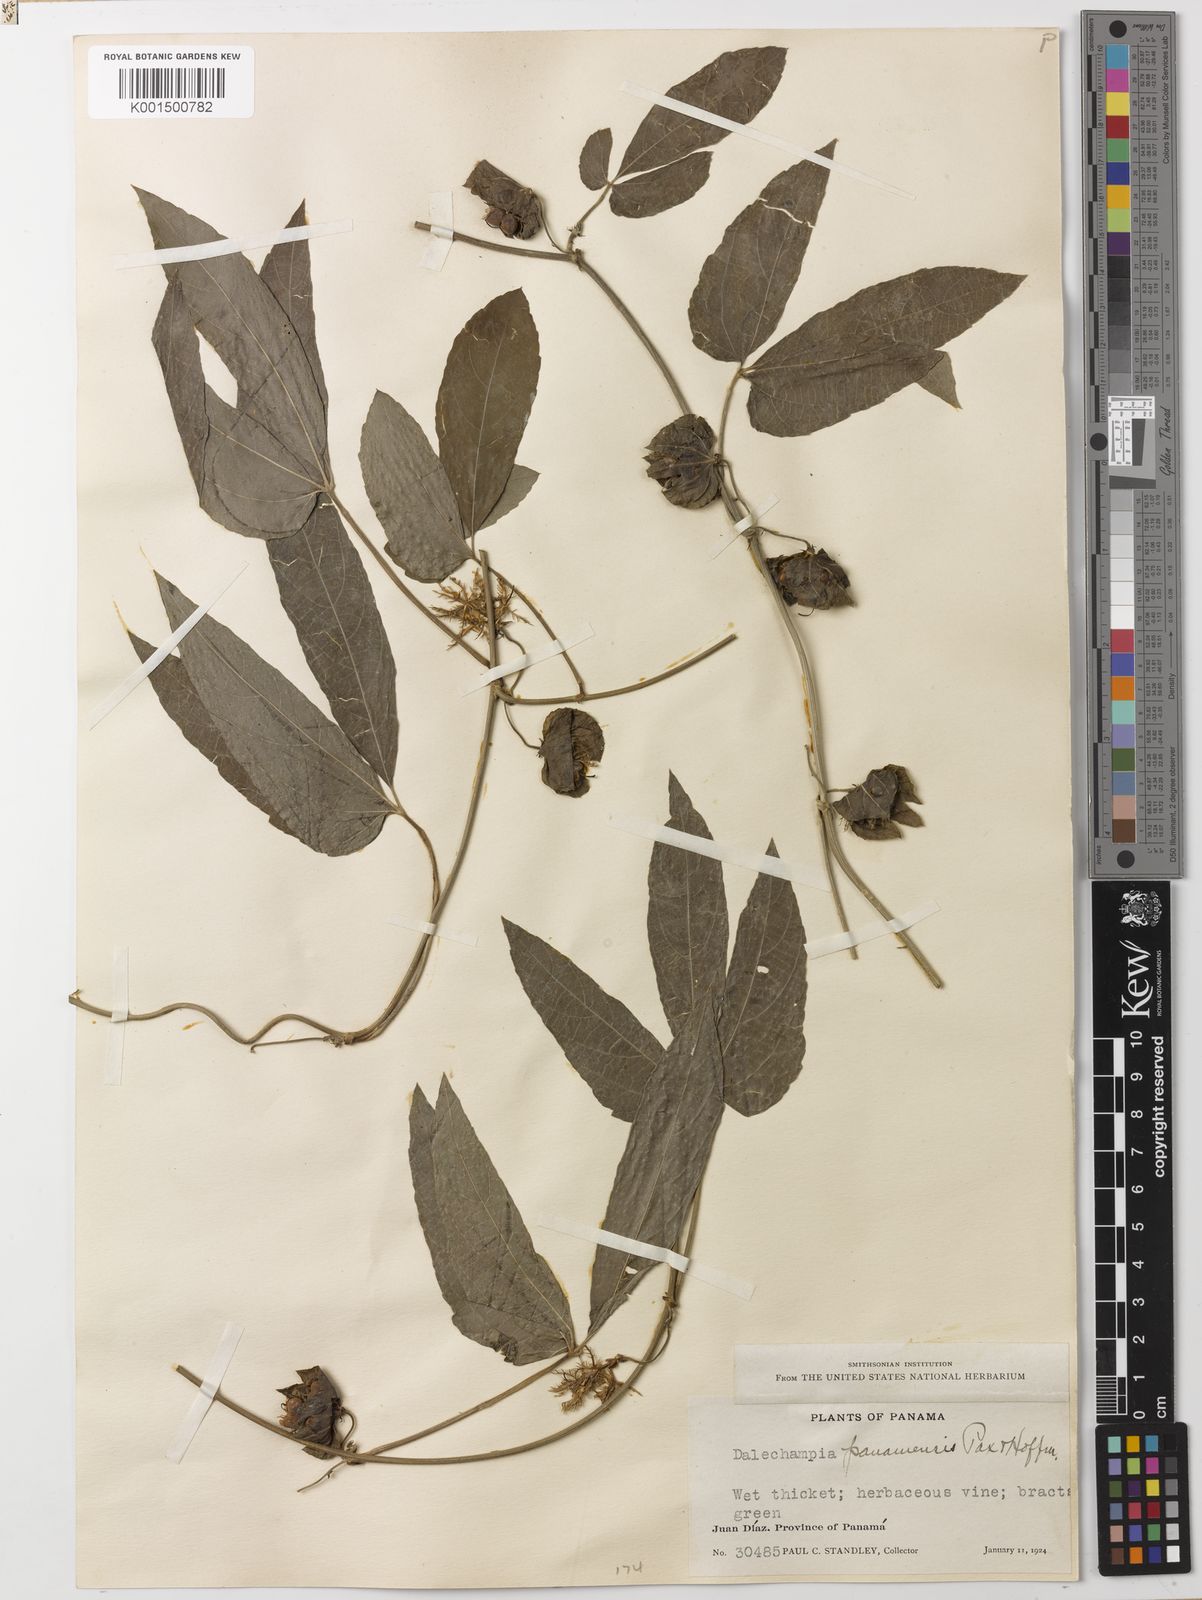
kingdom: Plantae
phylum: Tracheophyta
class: Magnoliopsida
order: Malpighiales
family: Euphorbiaceae
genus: Dalechampia
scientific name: Dalechampia cissifolia
